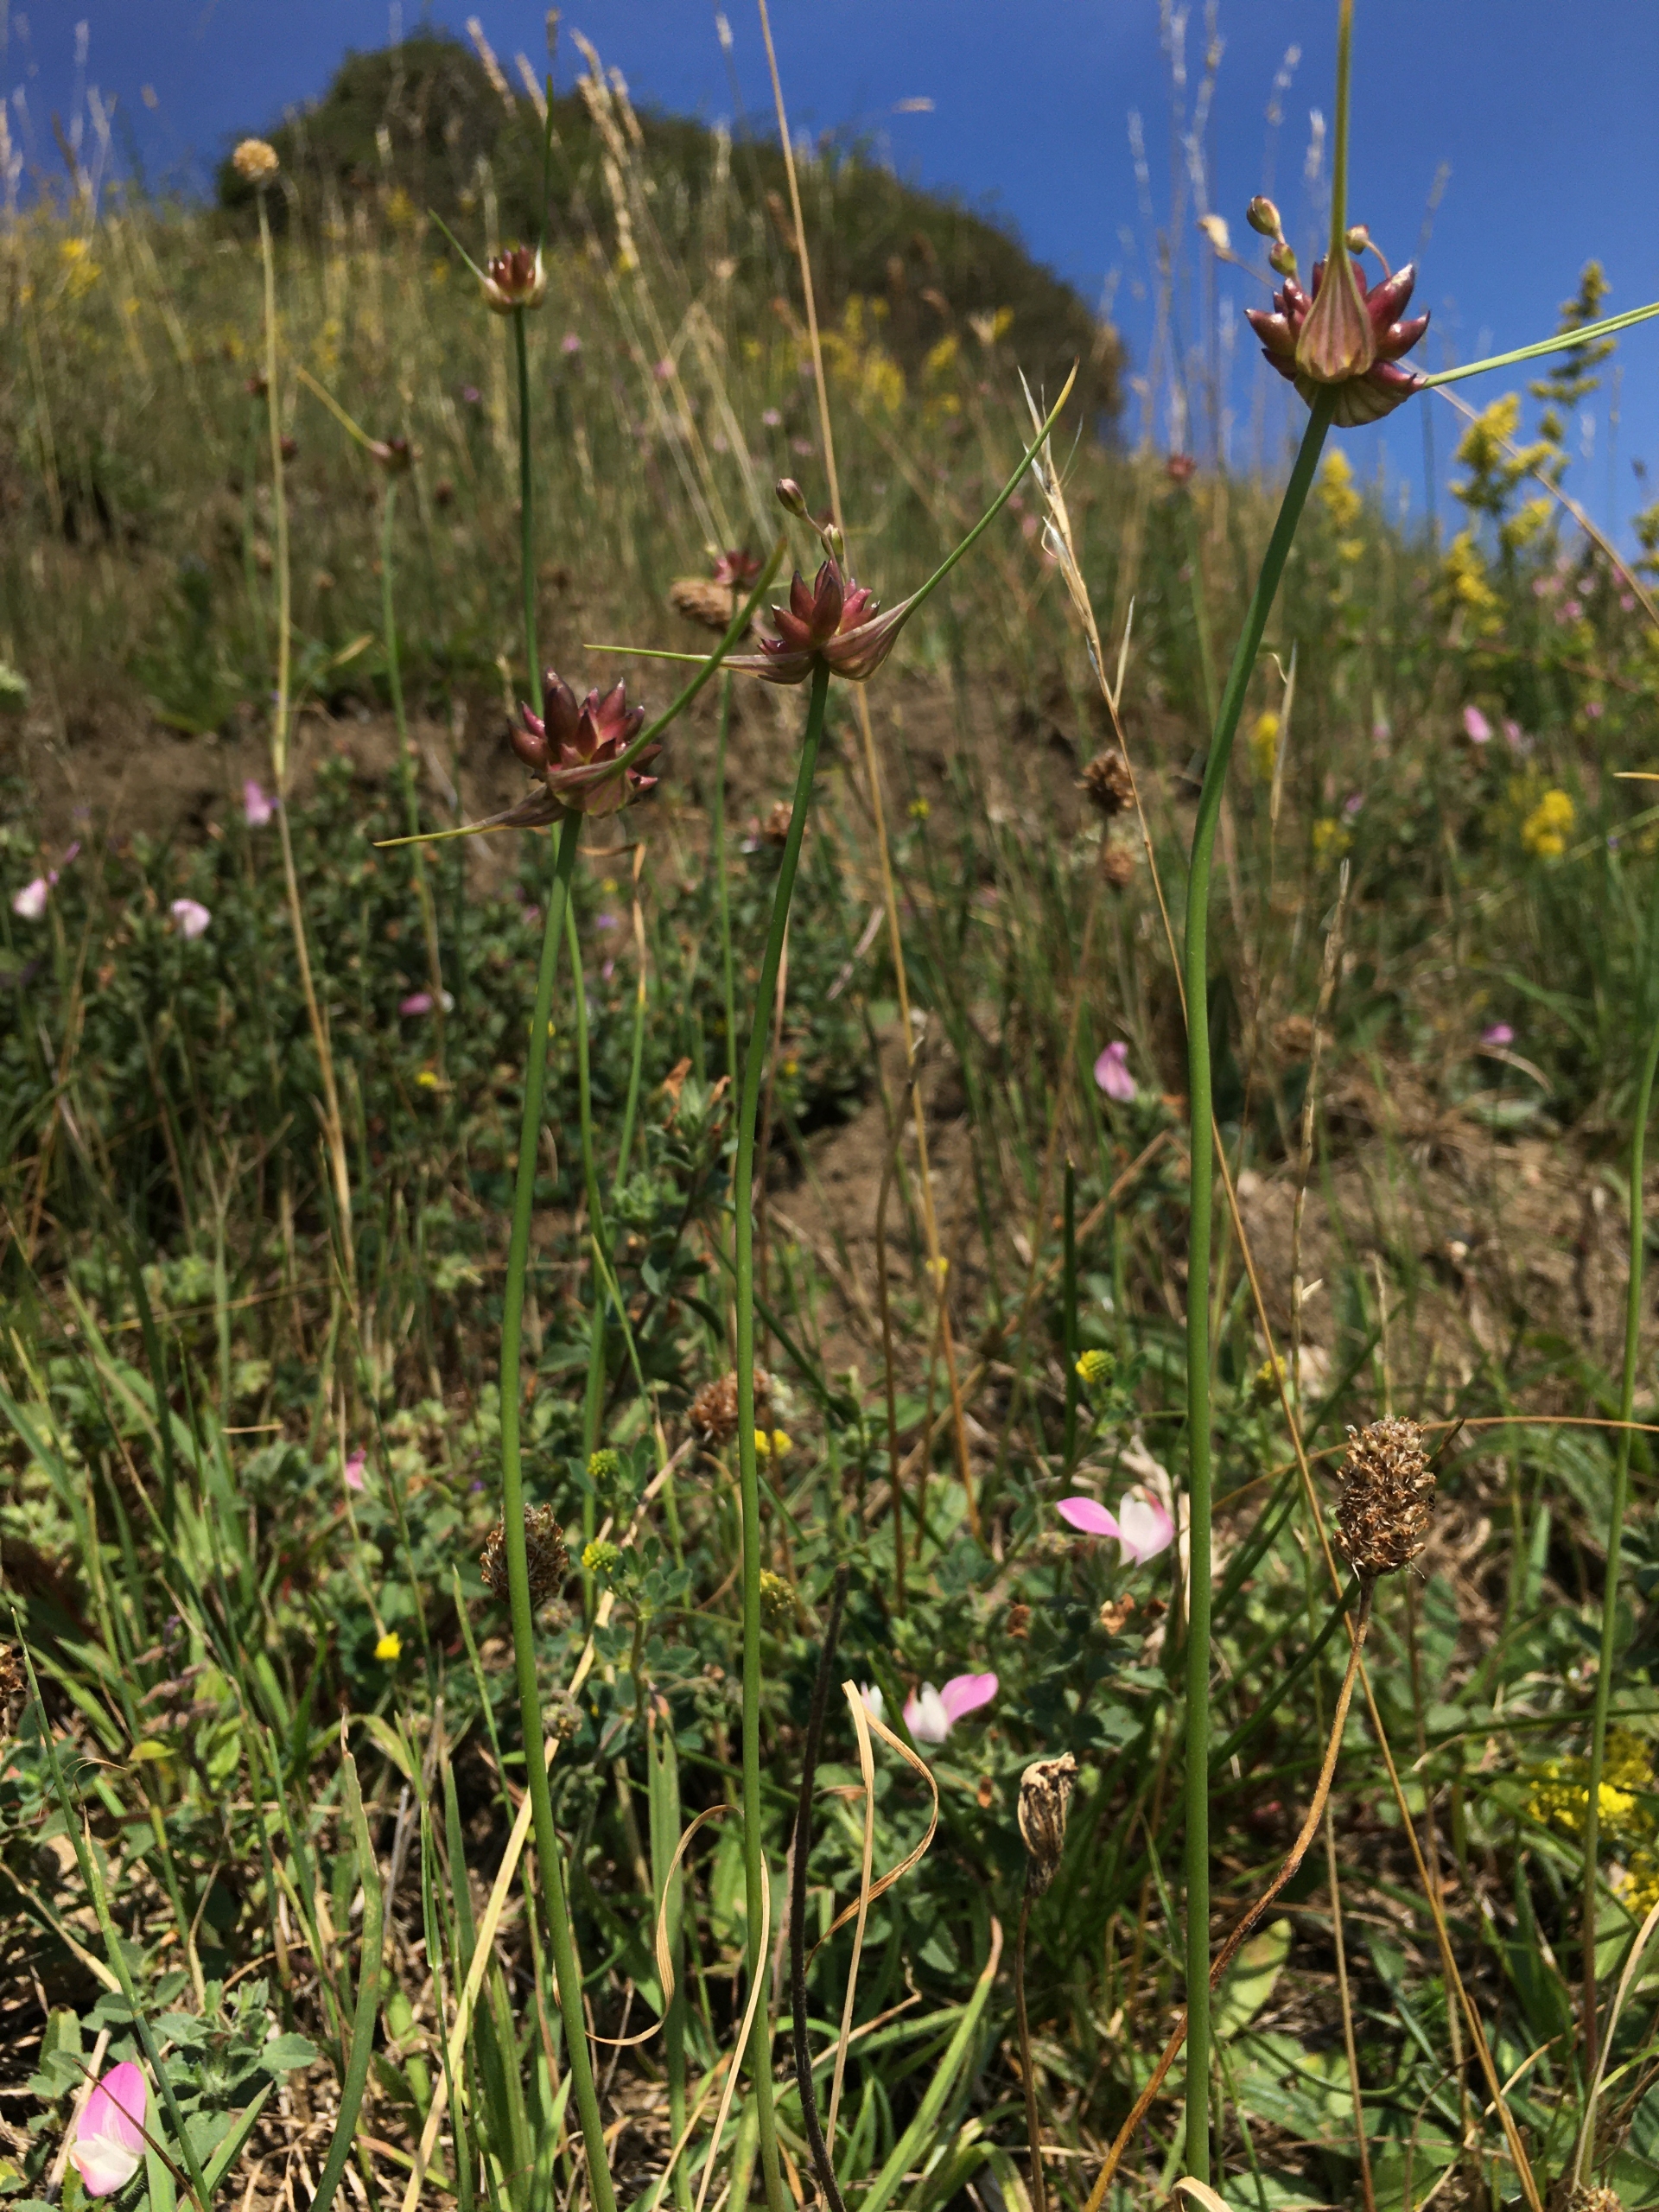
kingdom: Plantae
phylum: Tracheophyta
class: Liliopsida
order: Asparagales
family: Amaryllidaceae
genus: Allium
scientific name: Allium oleraceum
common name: Vild løg
